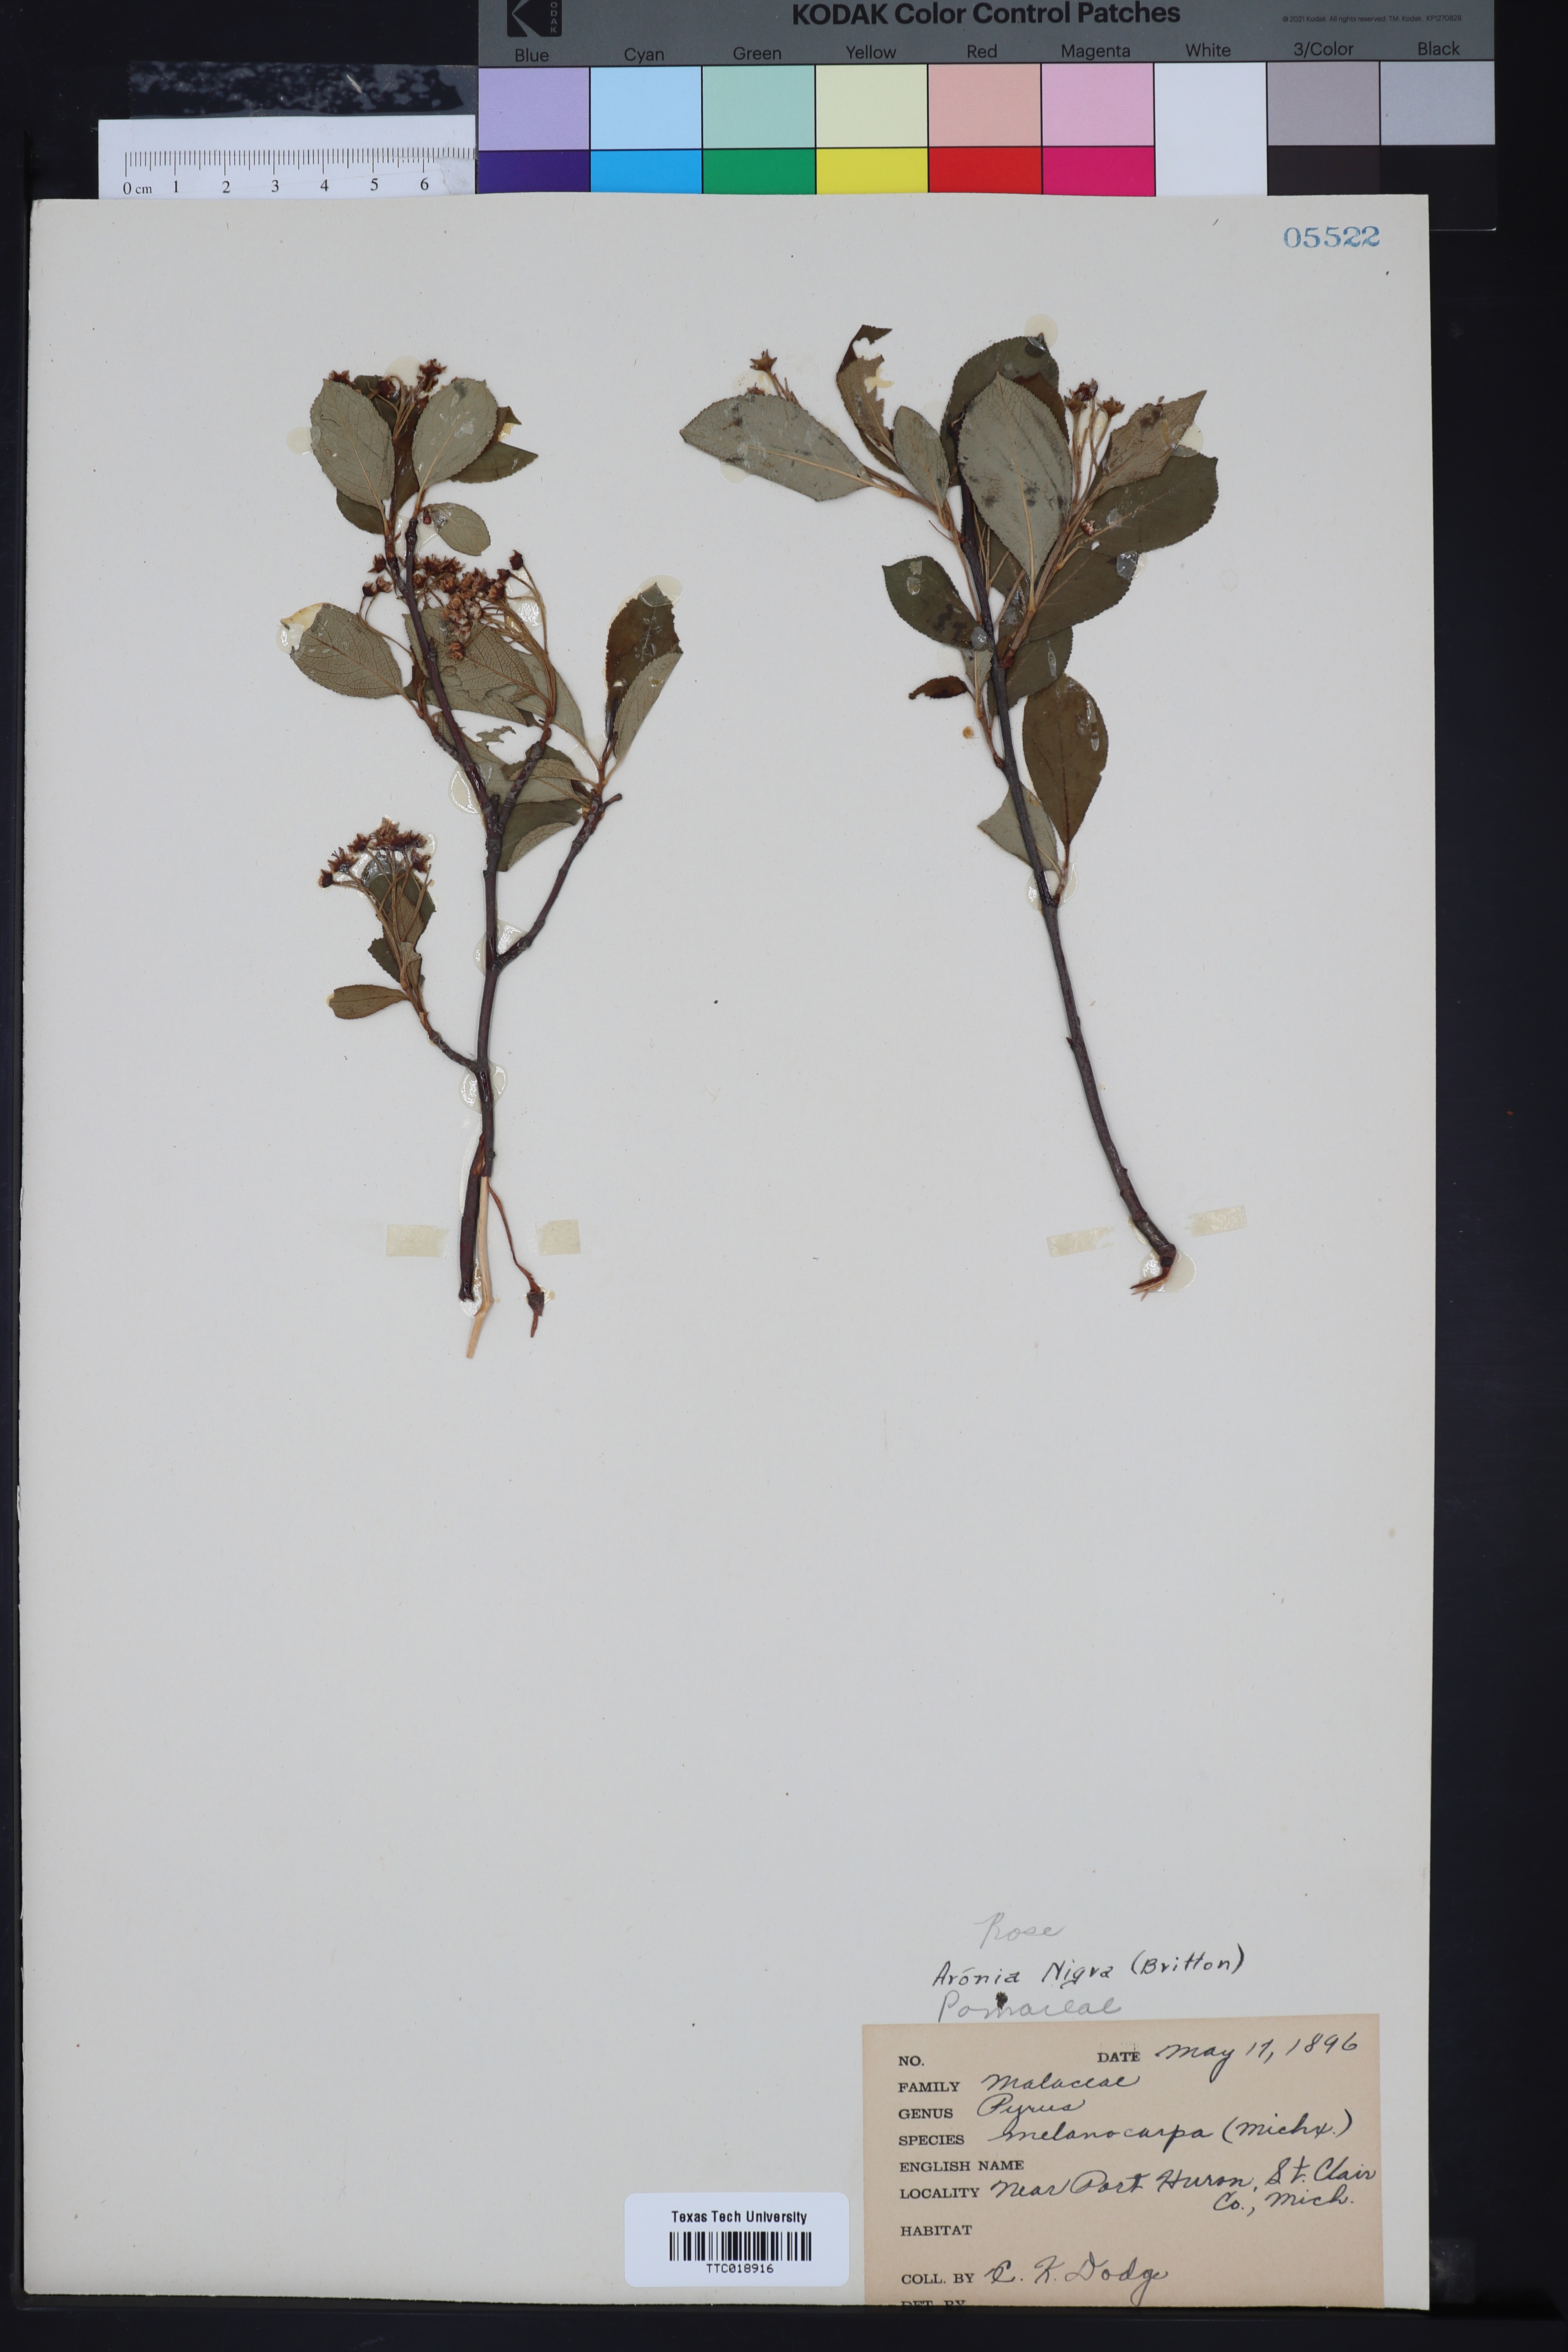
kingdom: Plantae
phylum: Tracheophyta
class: Magnoliopsida
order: Rosales
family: Rosaceae
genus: Aronia
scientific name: Aronia melanocarpa
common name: Black chokeberry
